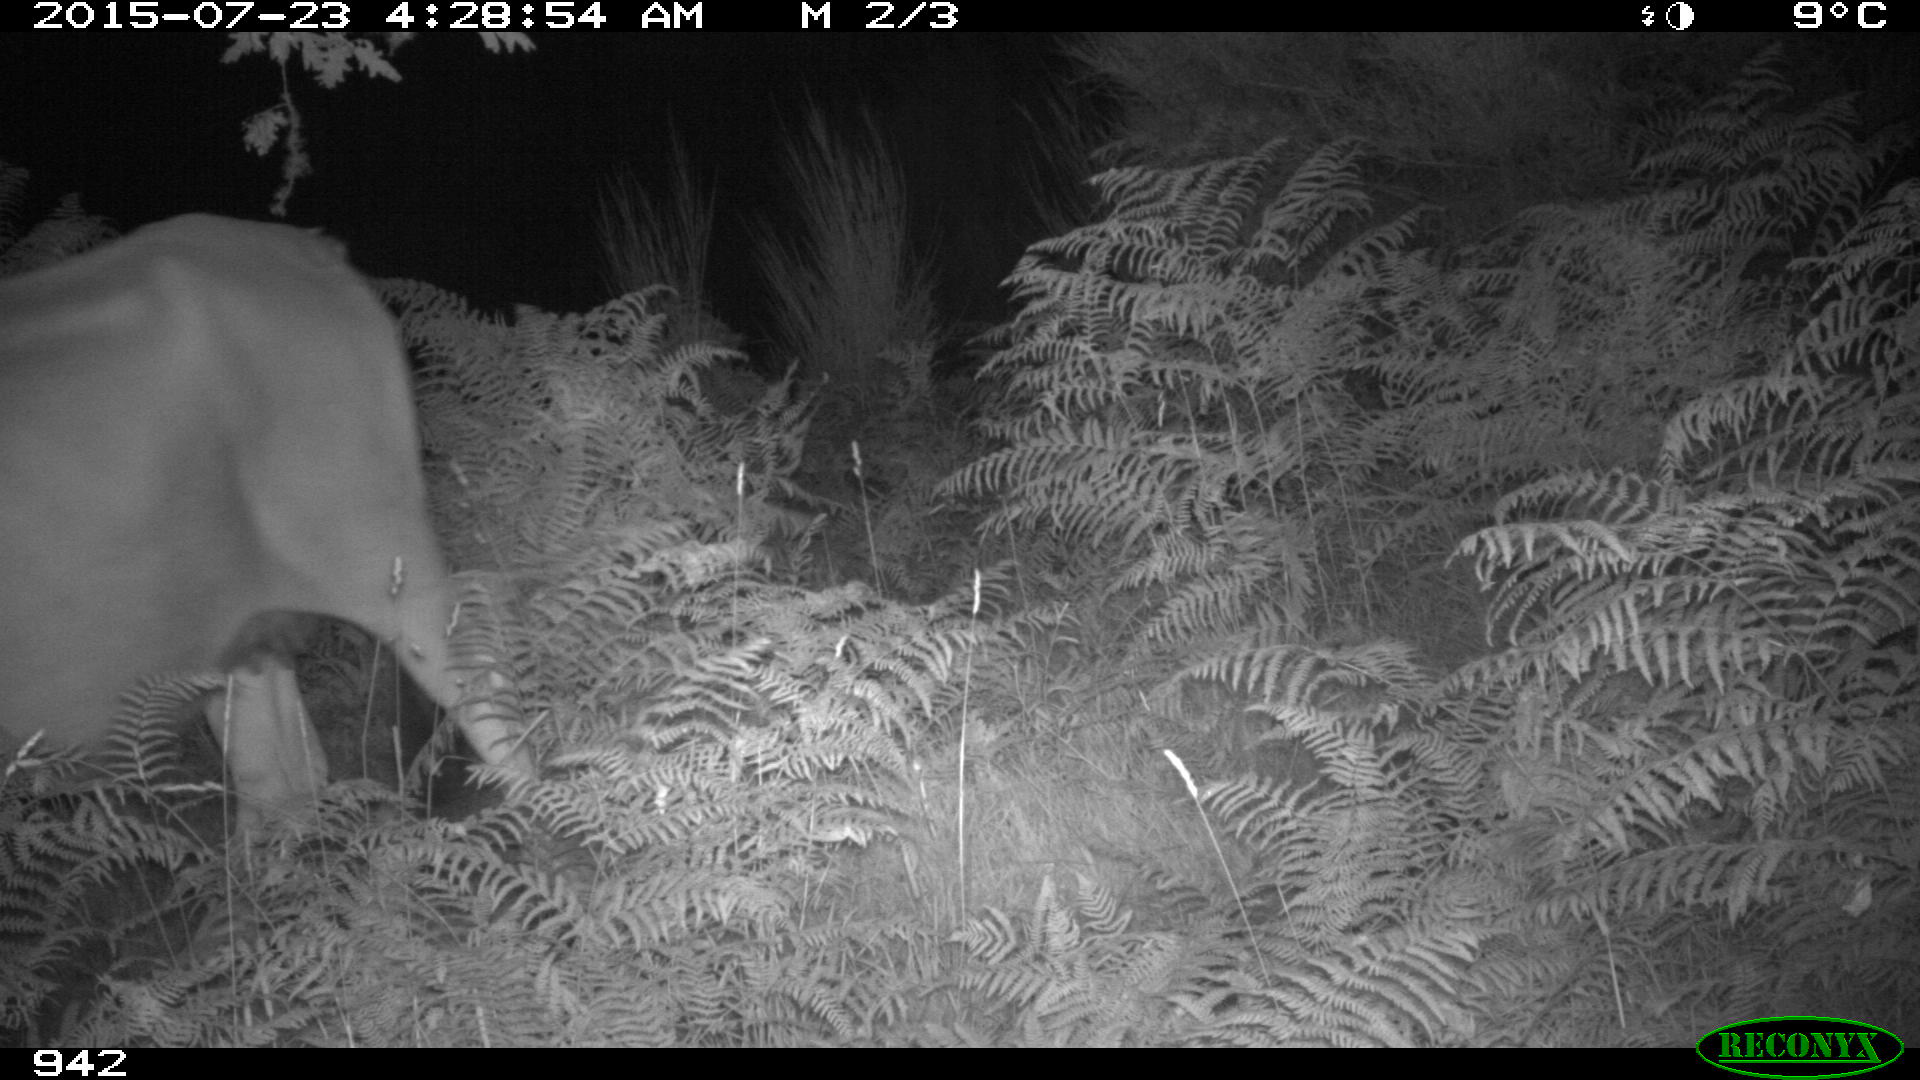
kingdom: Animalia
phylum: Chordata
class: Mammalia
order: Artiodactyla
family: Bovidae
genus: Bos
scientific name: Bos taurus
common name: Domesticated cattle
